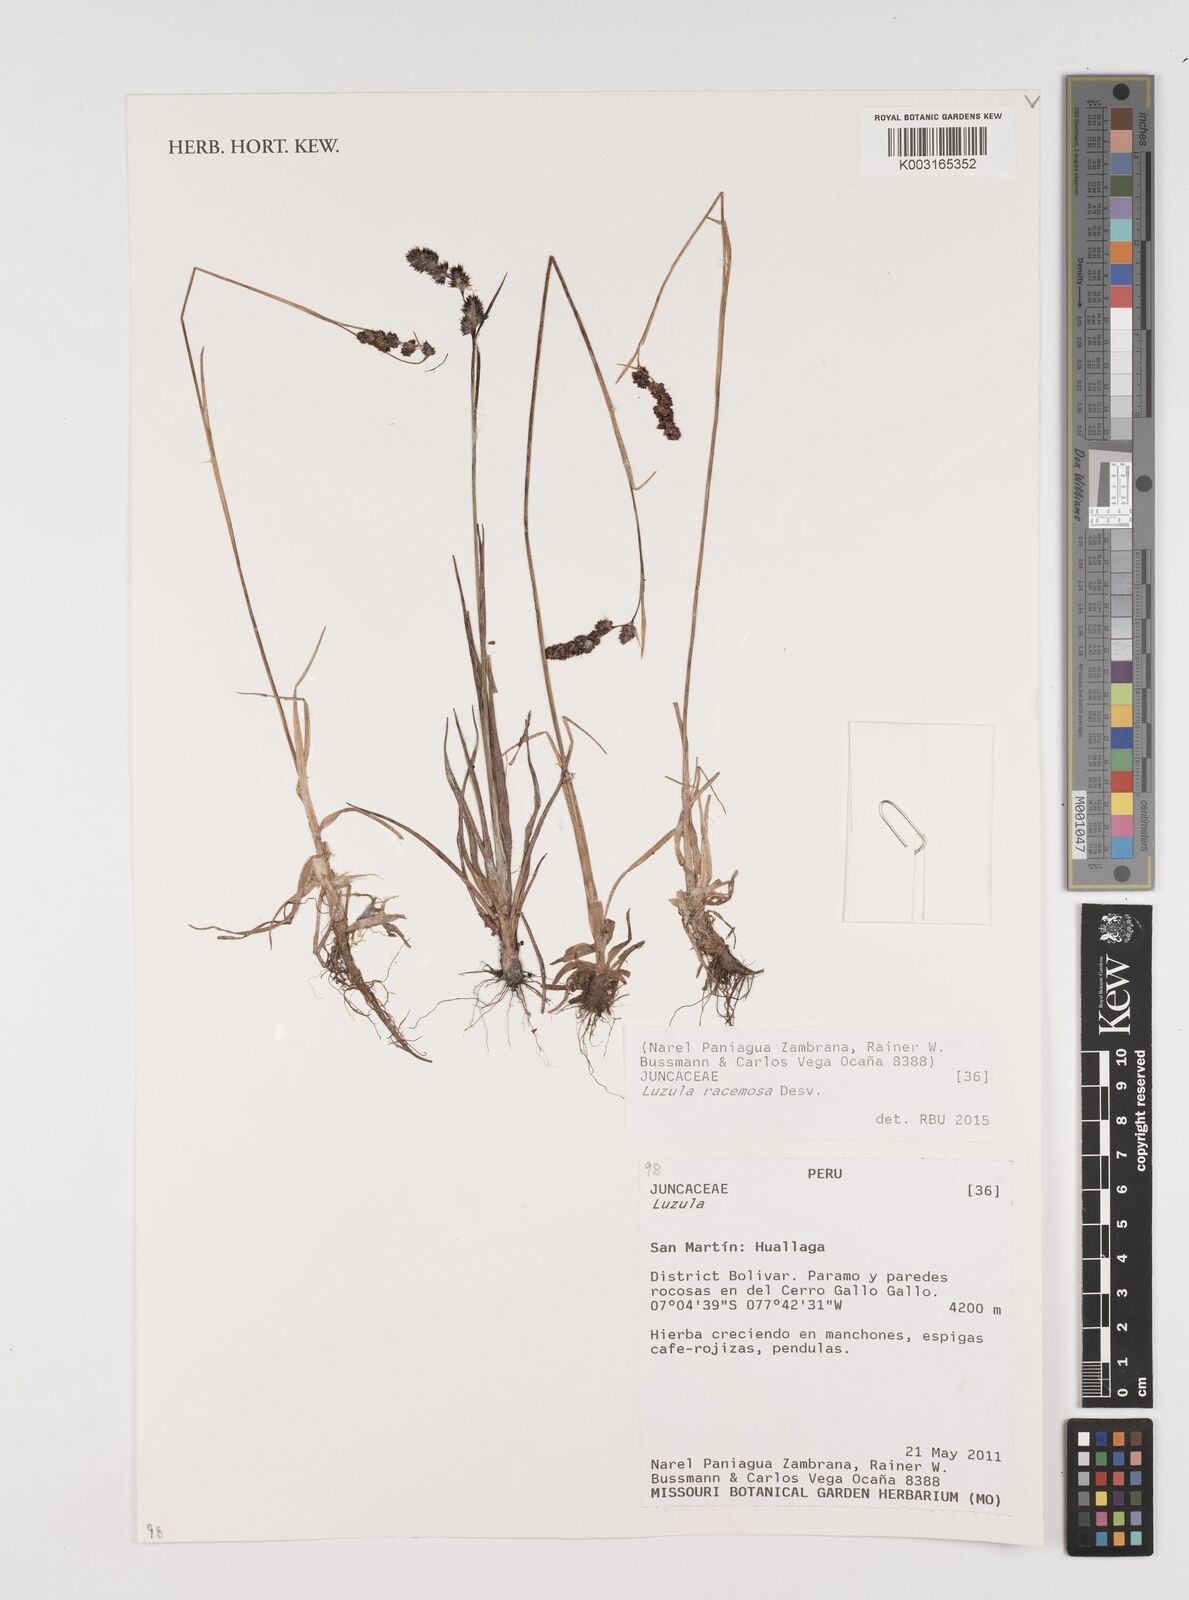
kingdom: Plantae
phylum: Tracheophyta
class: Liliopsida
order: Poales
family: Juncaceae
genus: Luzula
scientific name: Luzula racemosa
